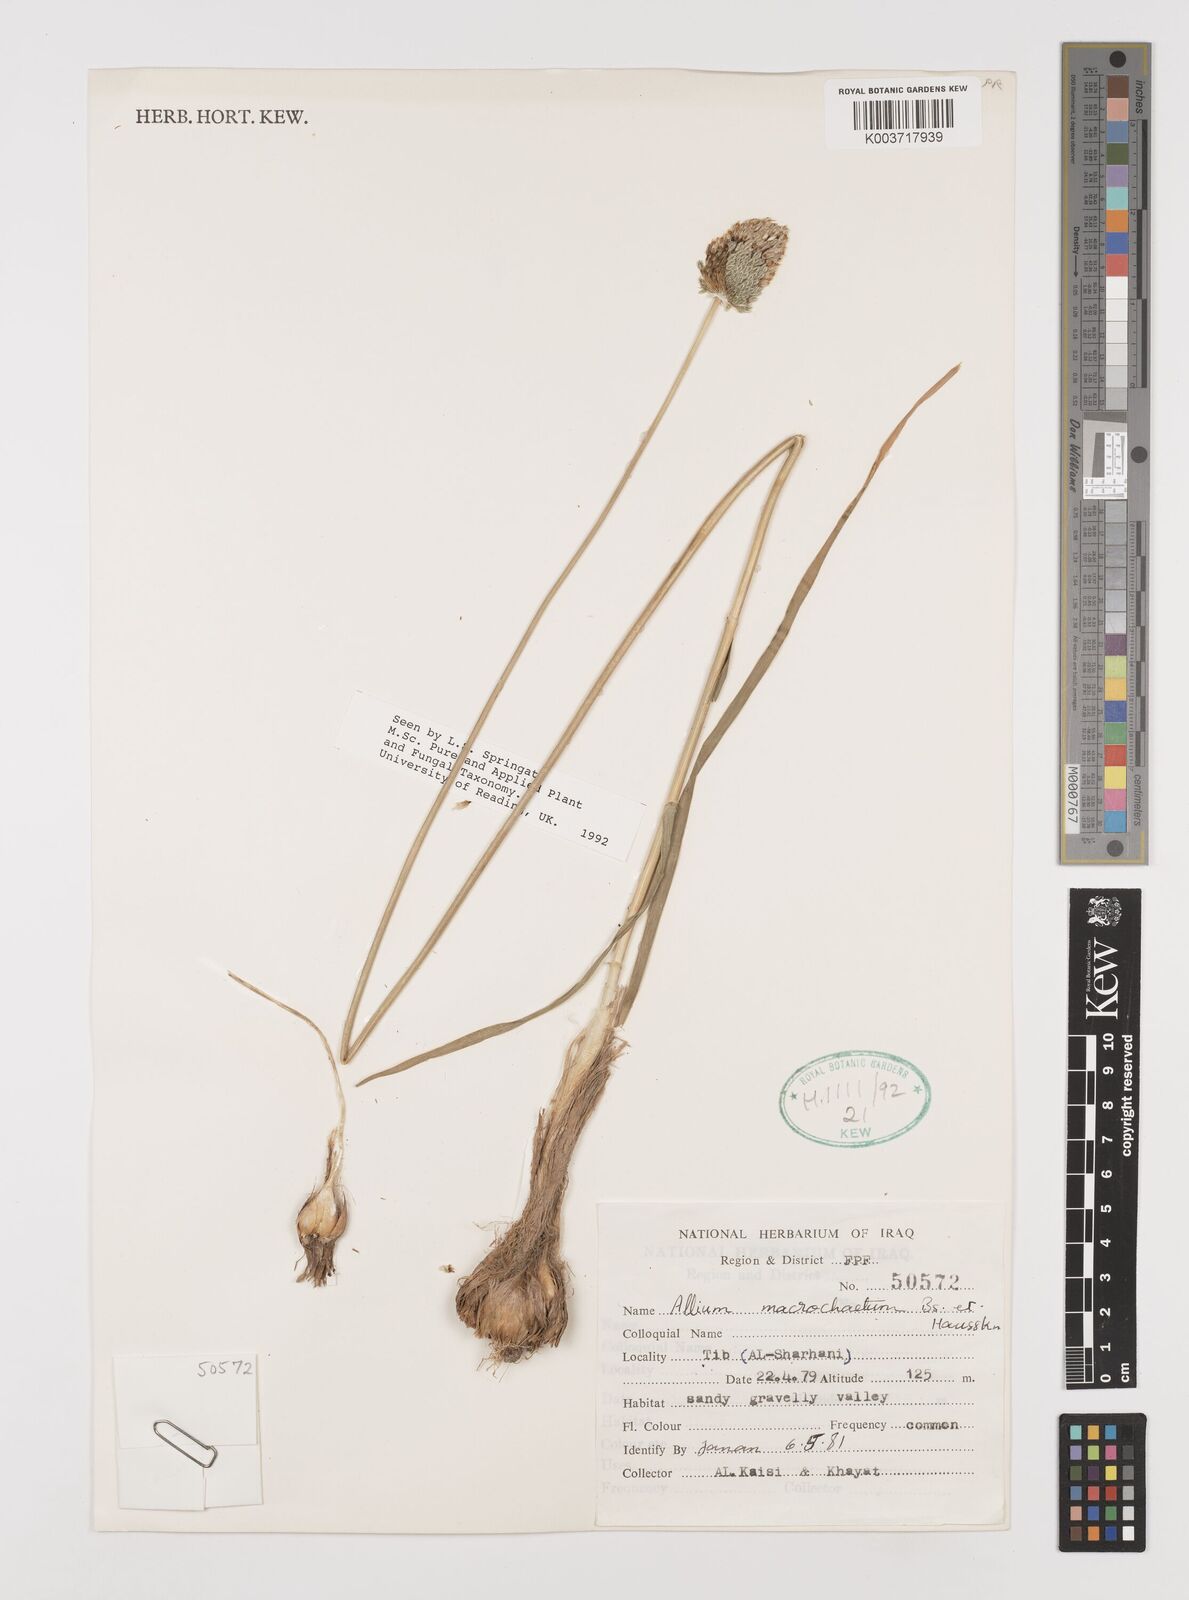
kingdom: Plantae
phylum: Tracheophyta
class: Liliopsida
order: Asparagales
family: Amaryllidaceae
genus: Allium
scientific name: Allium macrochaetum
